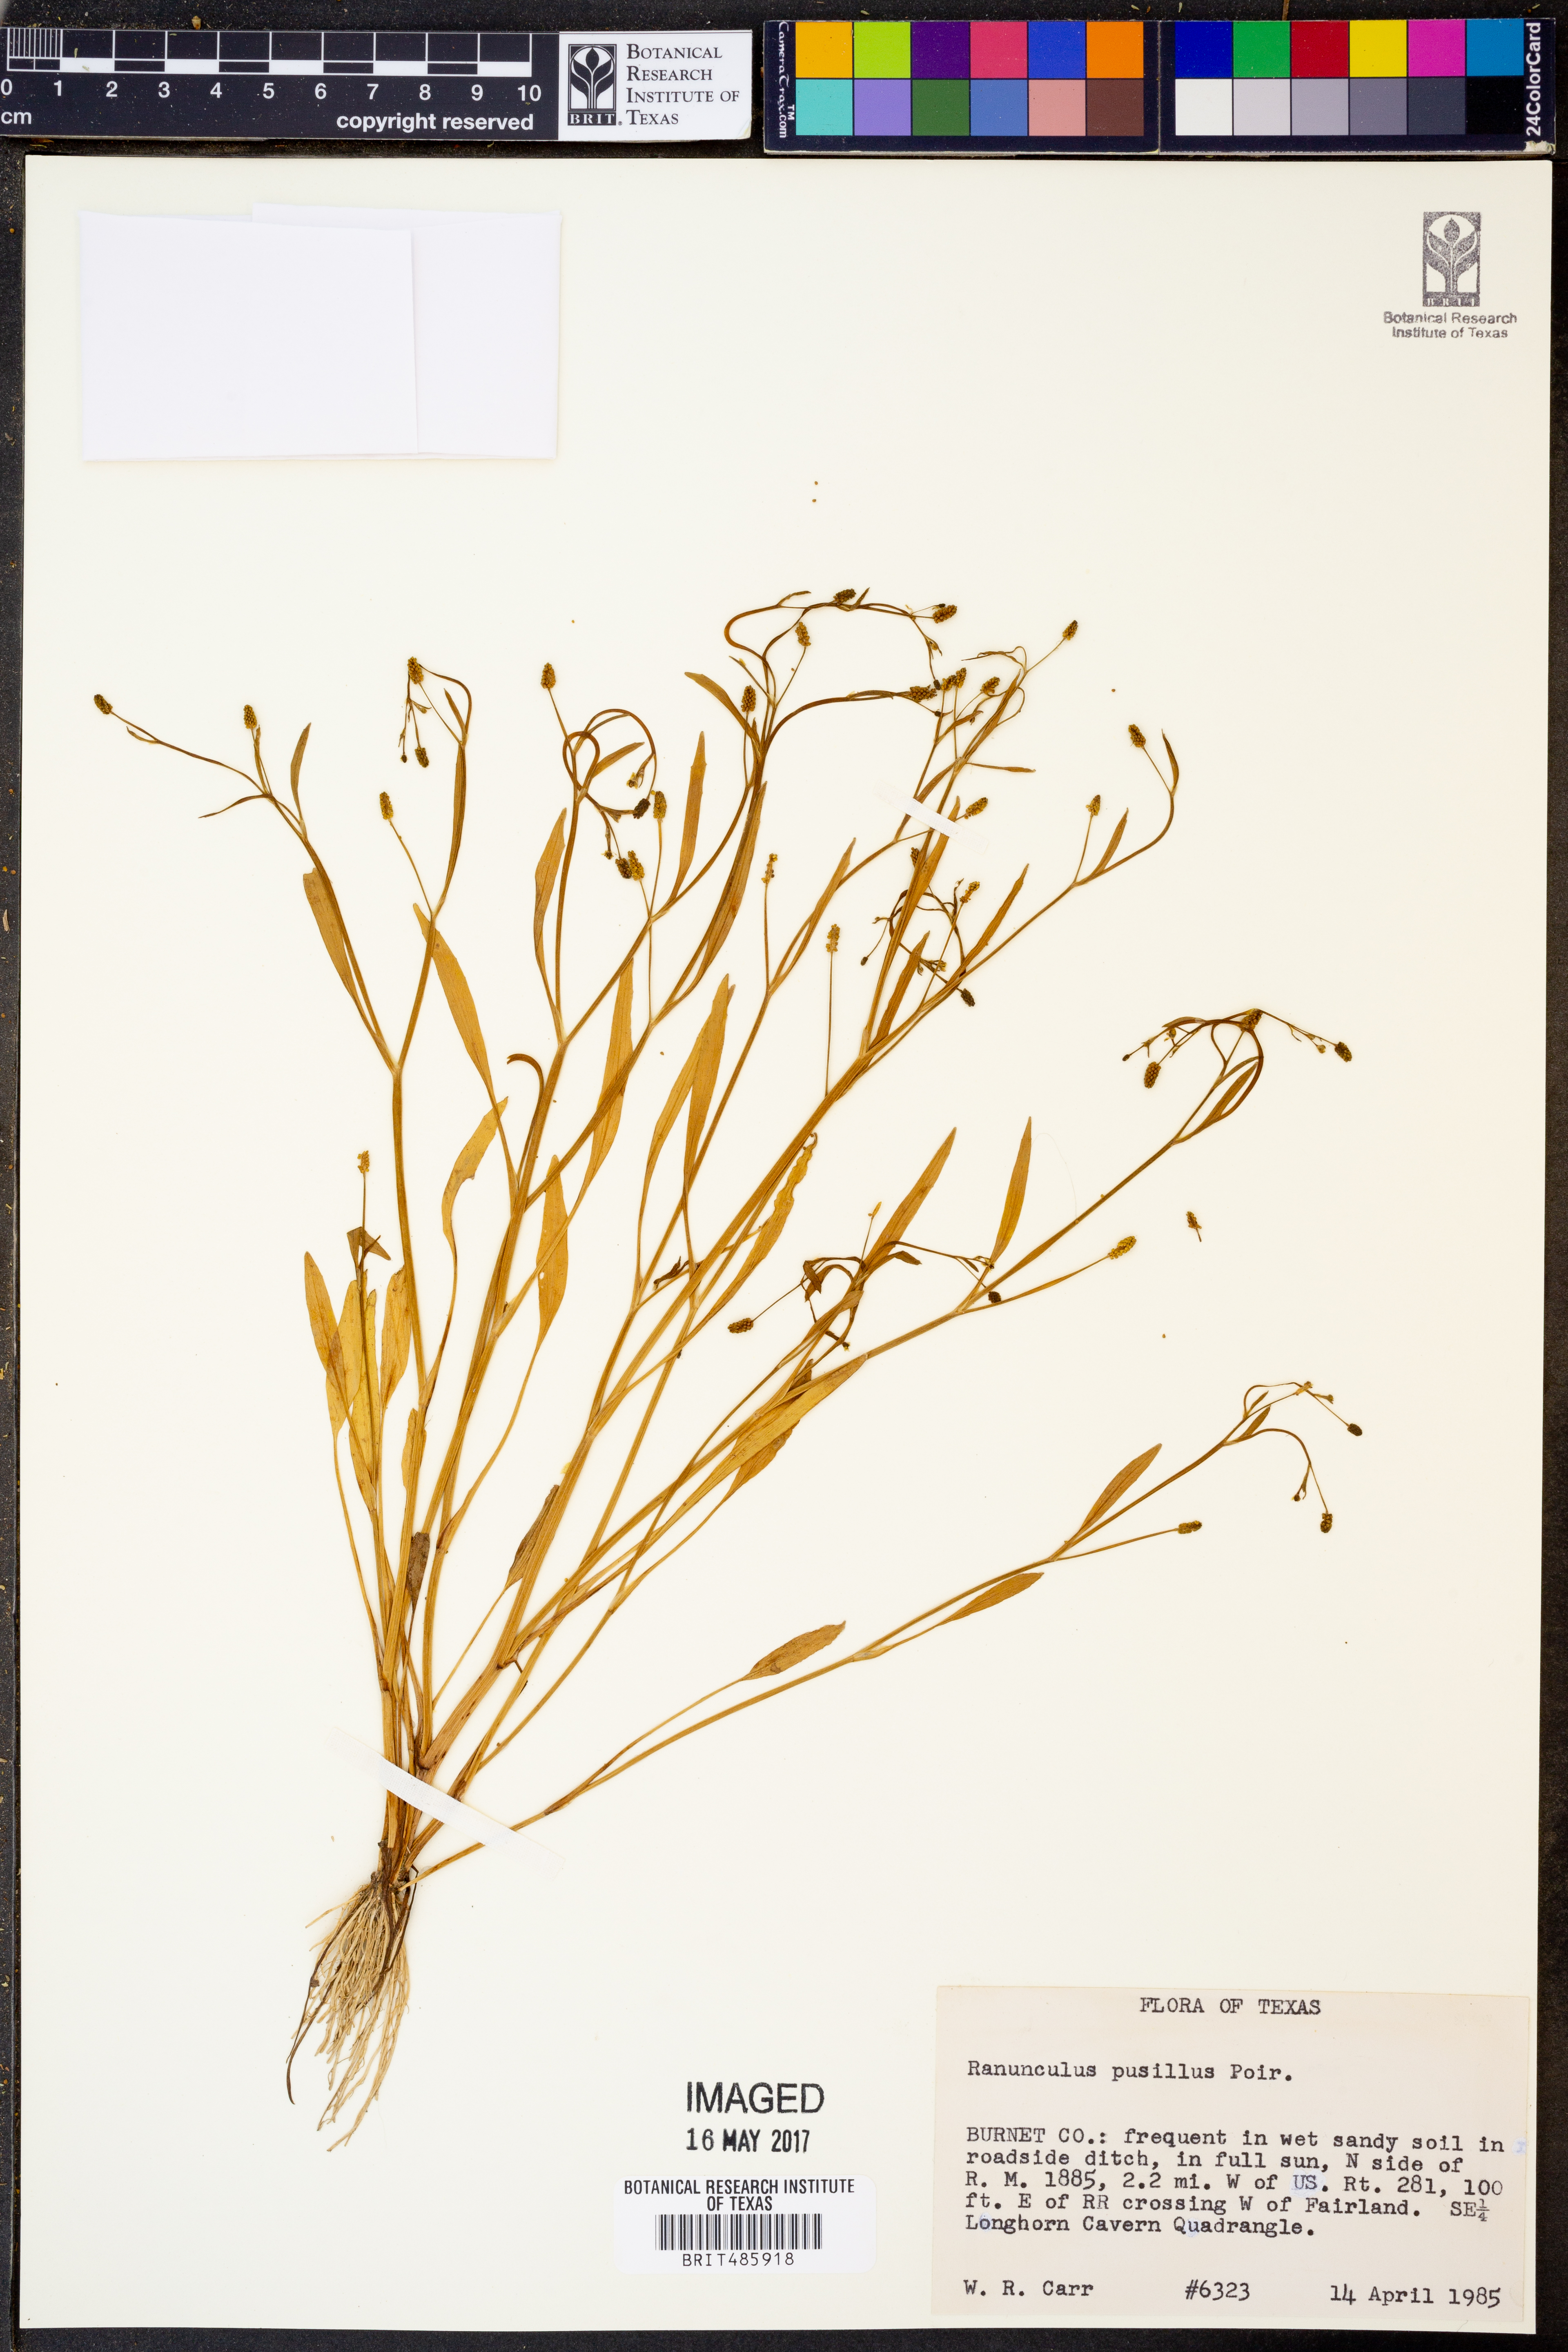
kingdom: Plantae
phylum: Tracheophyta
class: Magnoliopsida
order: Ranunculales
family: Ranunculaceae
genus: Ranunculus
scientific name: Ranunculus pusillus
